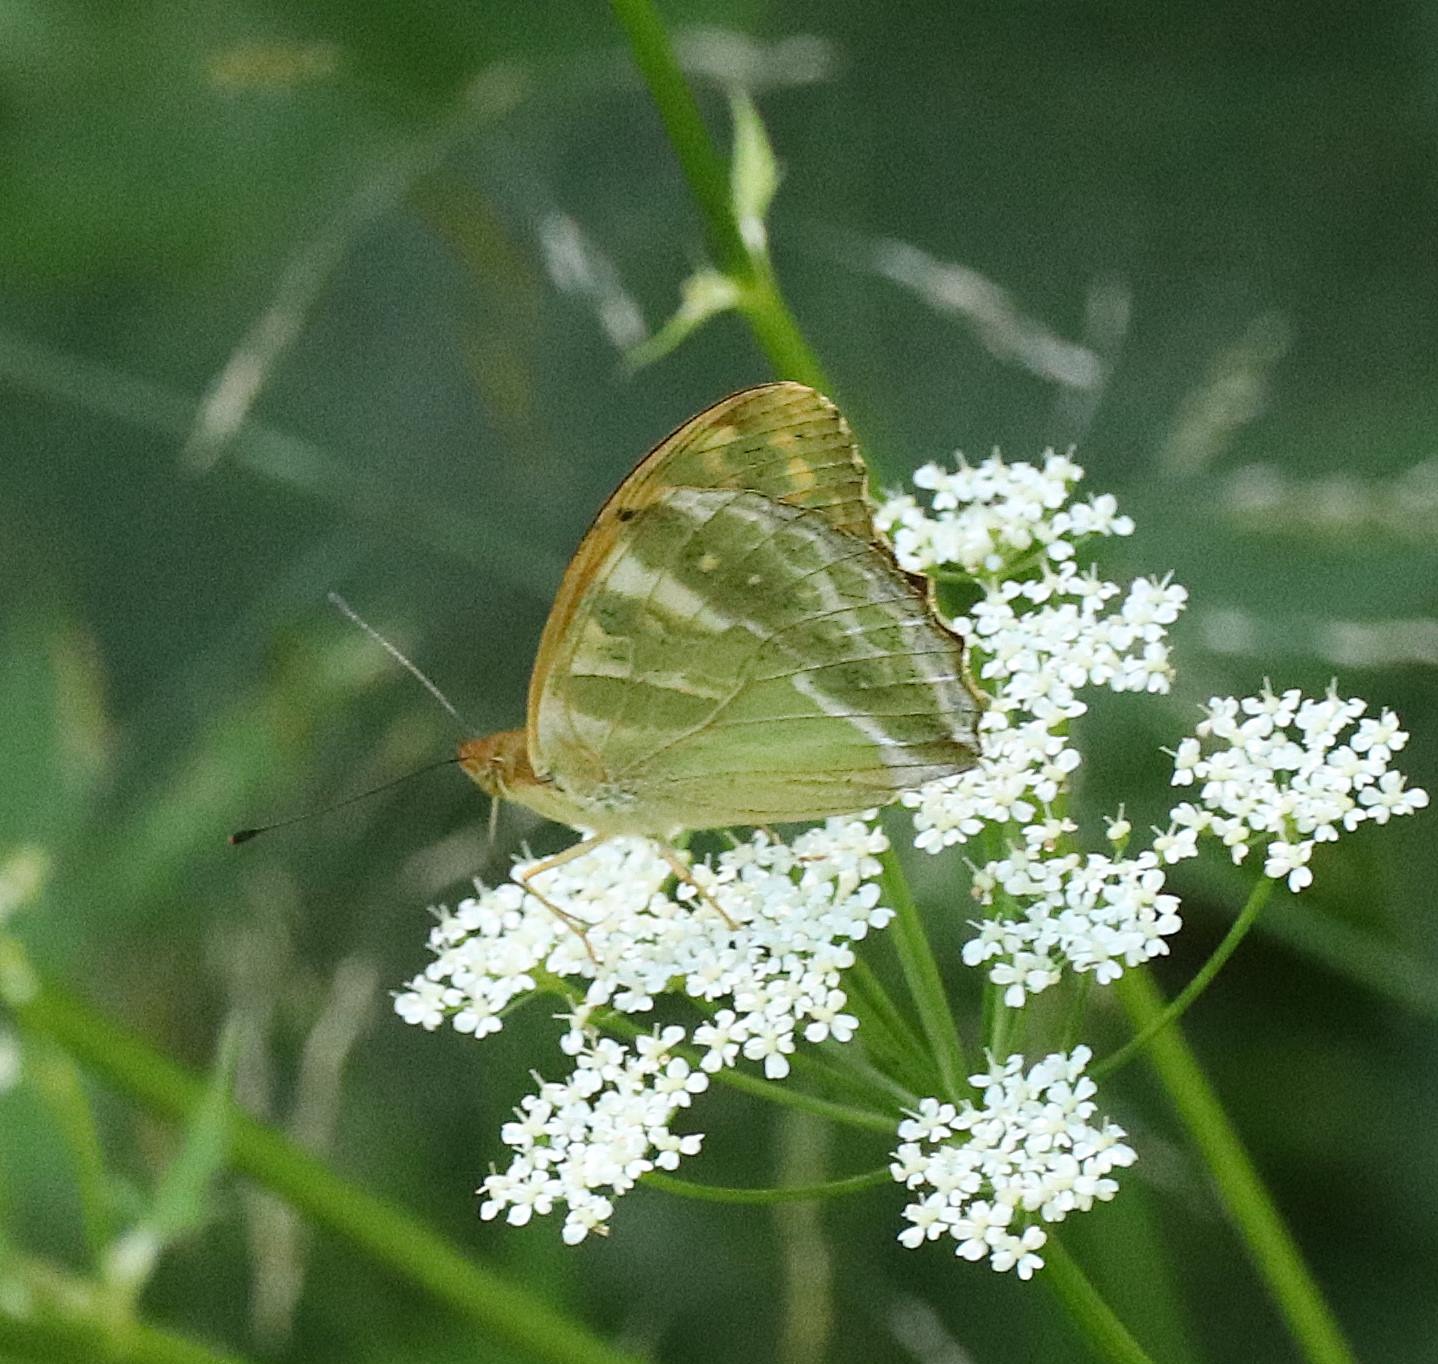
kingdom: Animalia
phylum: Arthropoda
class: Insecta
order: Lepidoptera
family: Nymphalidae
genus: Argynnis
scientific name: Argynnis paphia
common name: Kejserkåbe
